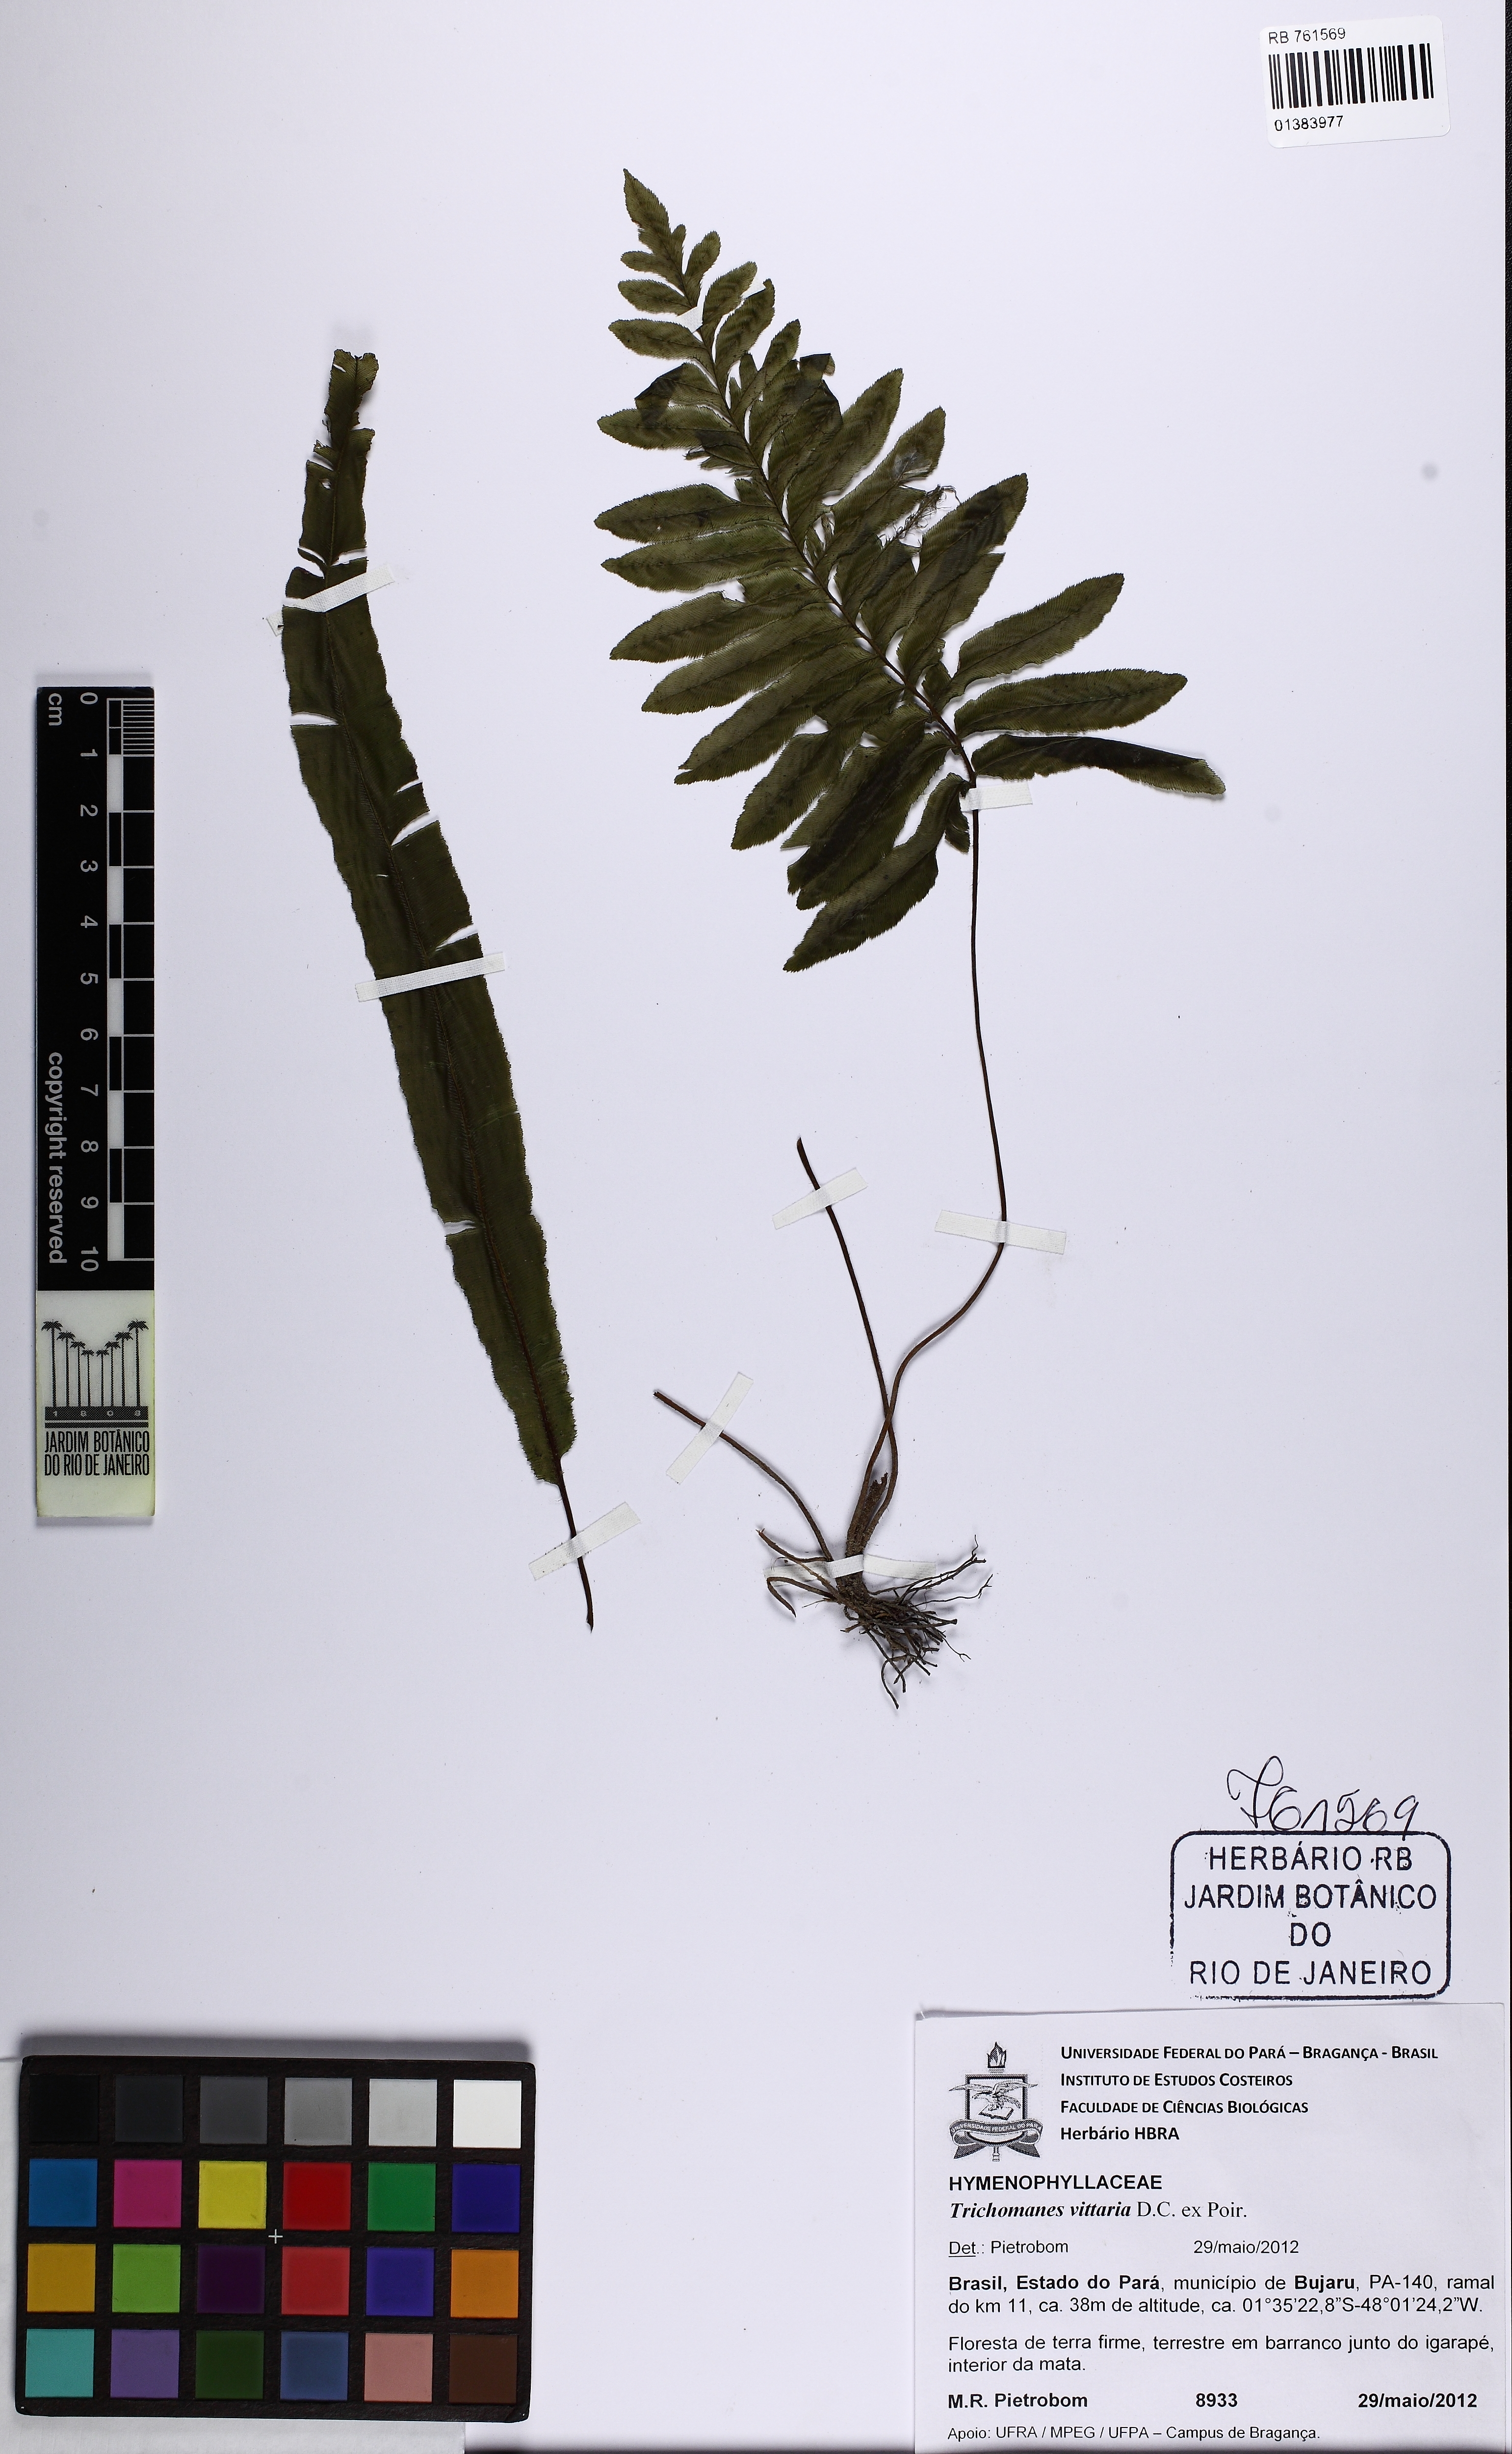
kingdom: Plantae
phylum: Tracheophyta
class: Polypodiopsida
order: Hymenophyllales
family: Hymenophyllaceae
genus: Trichomanes
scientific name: Trichomanes vittaria
